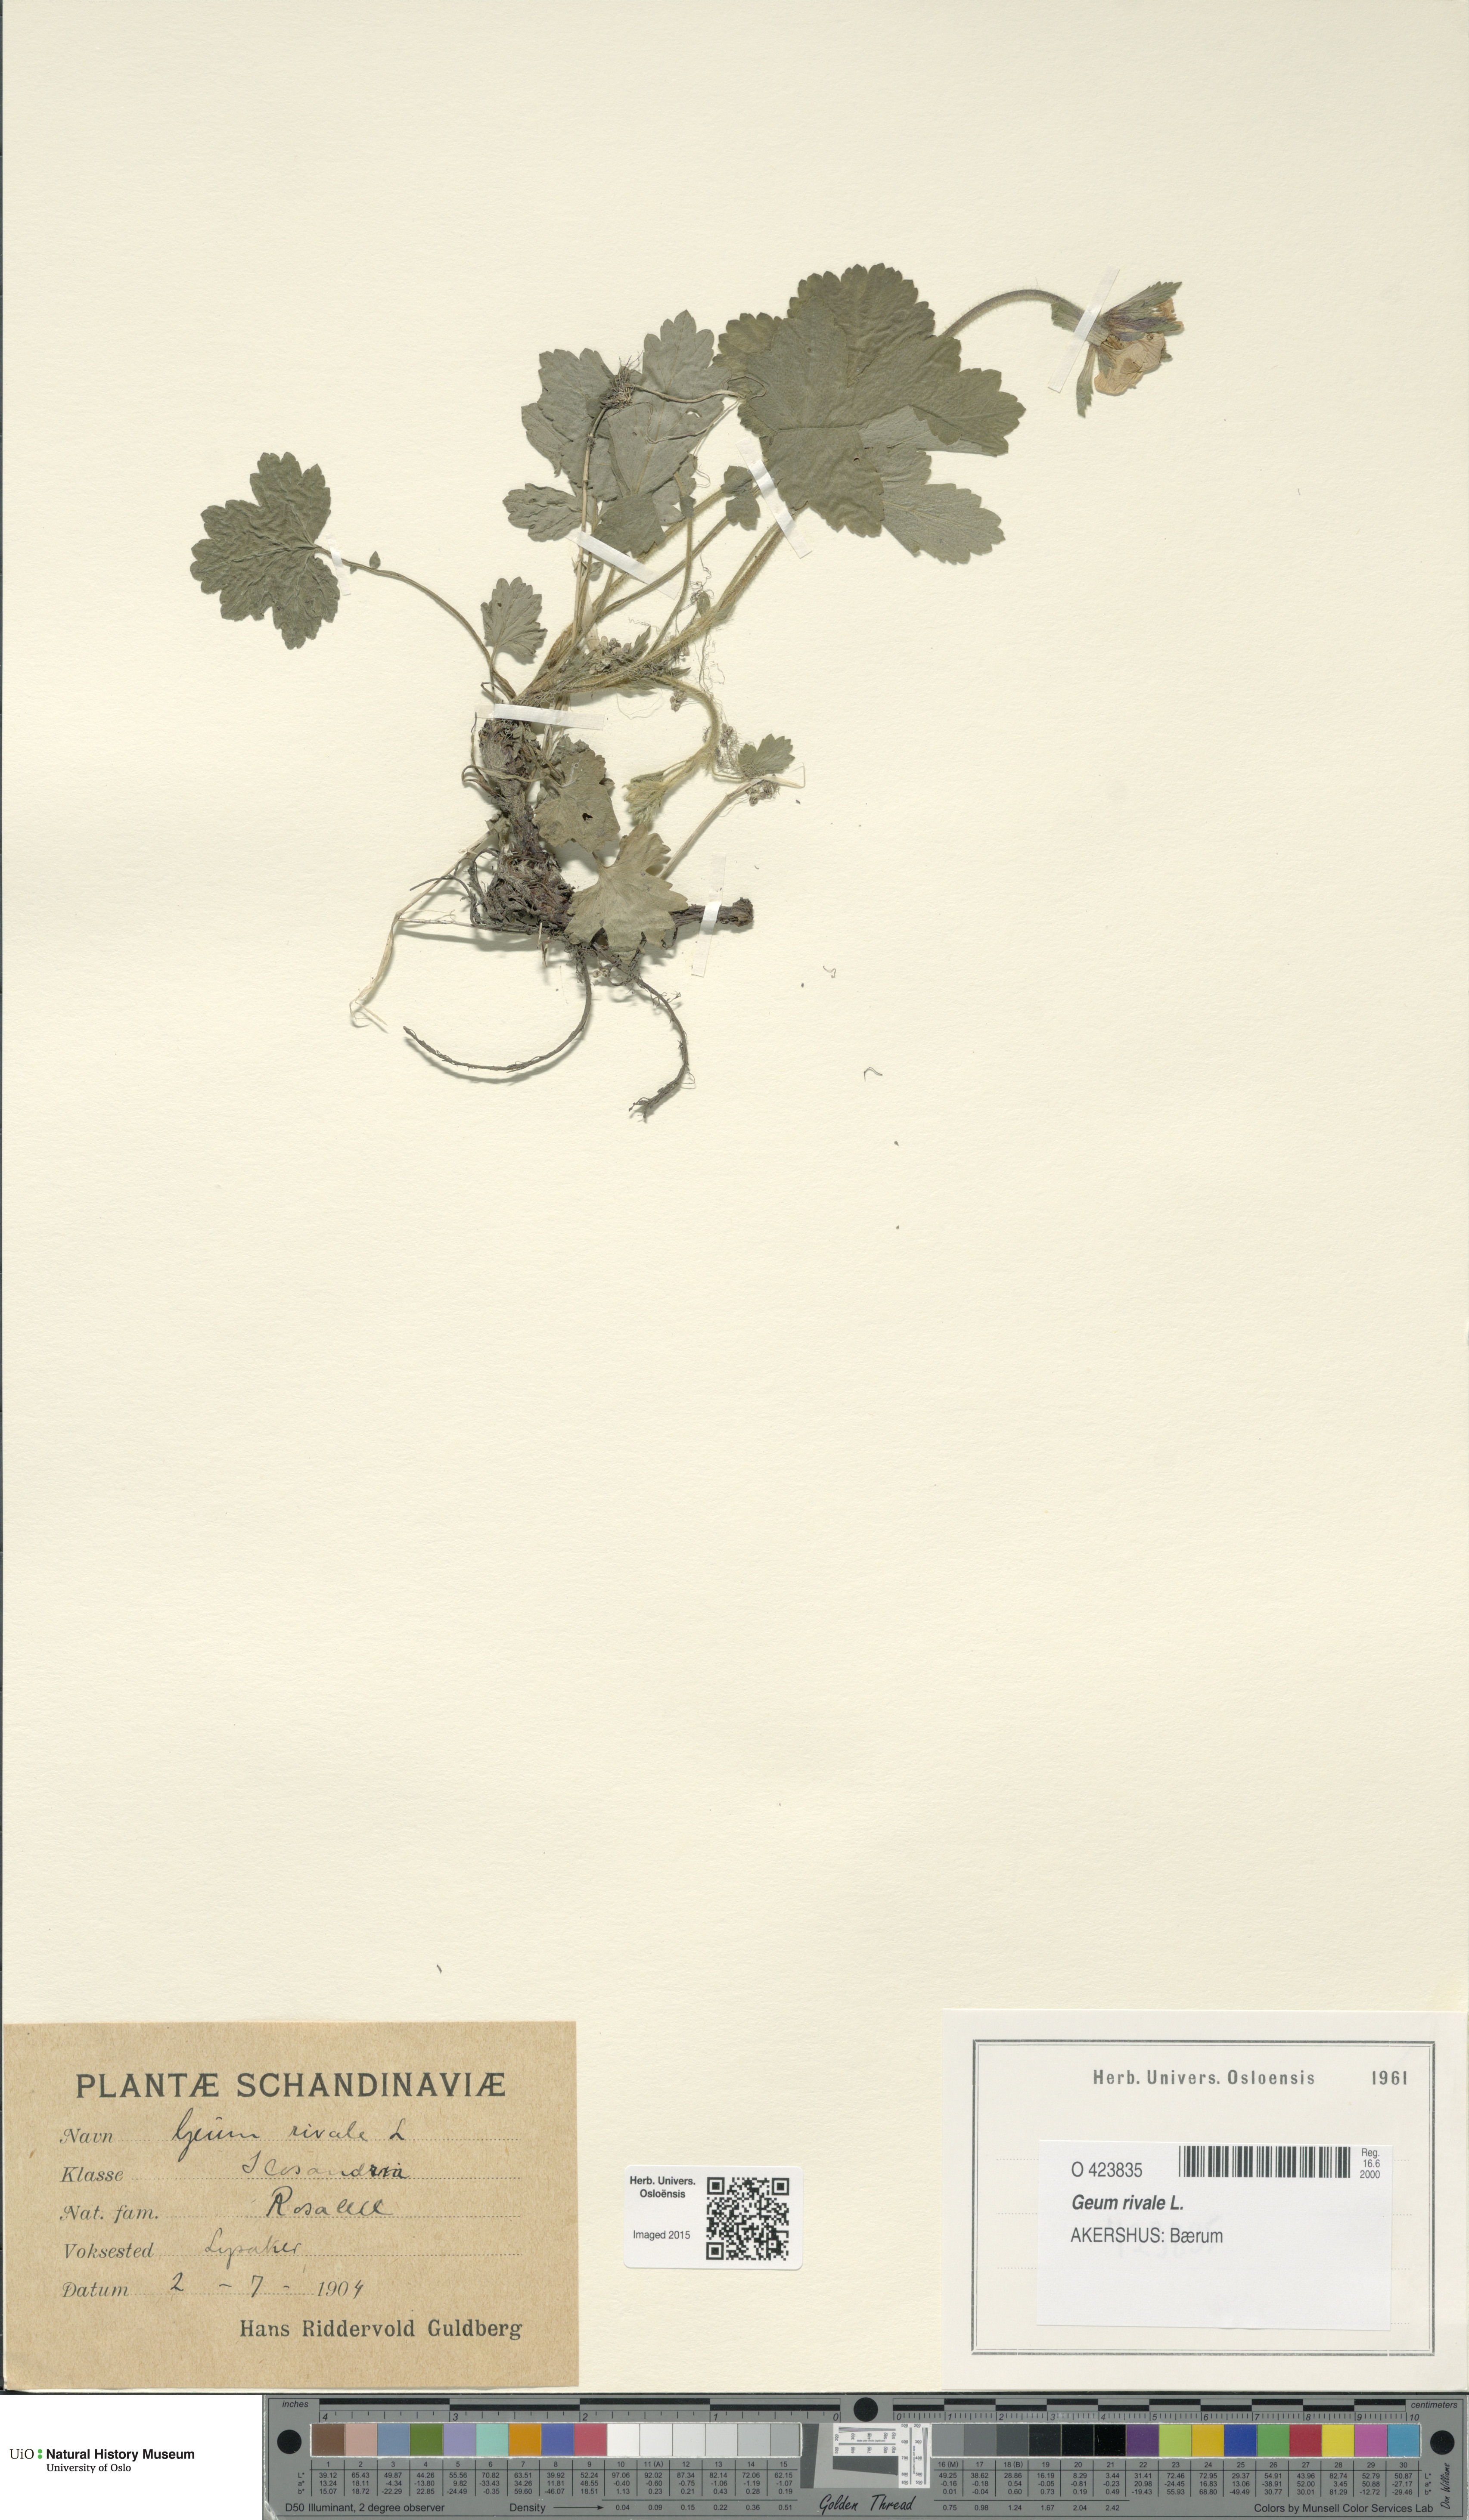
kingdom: Plantae
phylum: Tracheophyta
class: Magnoliopsida
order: Rosales
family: Rosaceae
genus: Geum
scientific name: Geum rivale
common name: Water avens
